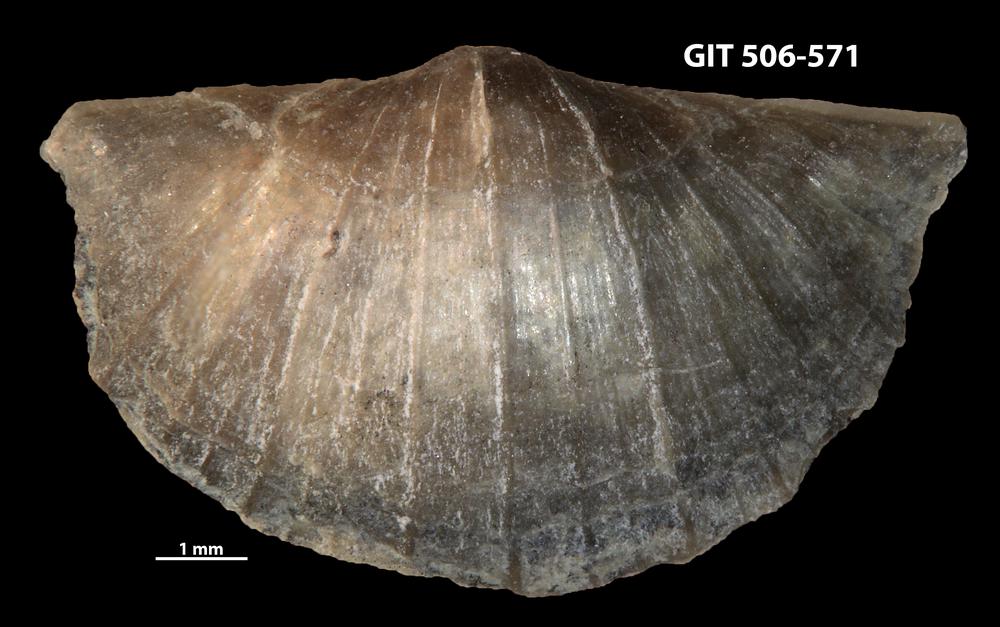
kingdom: Animalia
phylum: Brachiopoda
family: Oldhaminidae
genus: Eoplectodonta
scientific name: Eoplectodonta exceptionis
